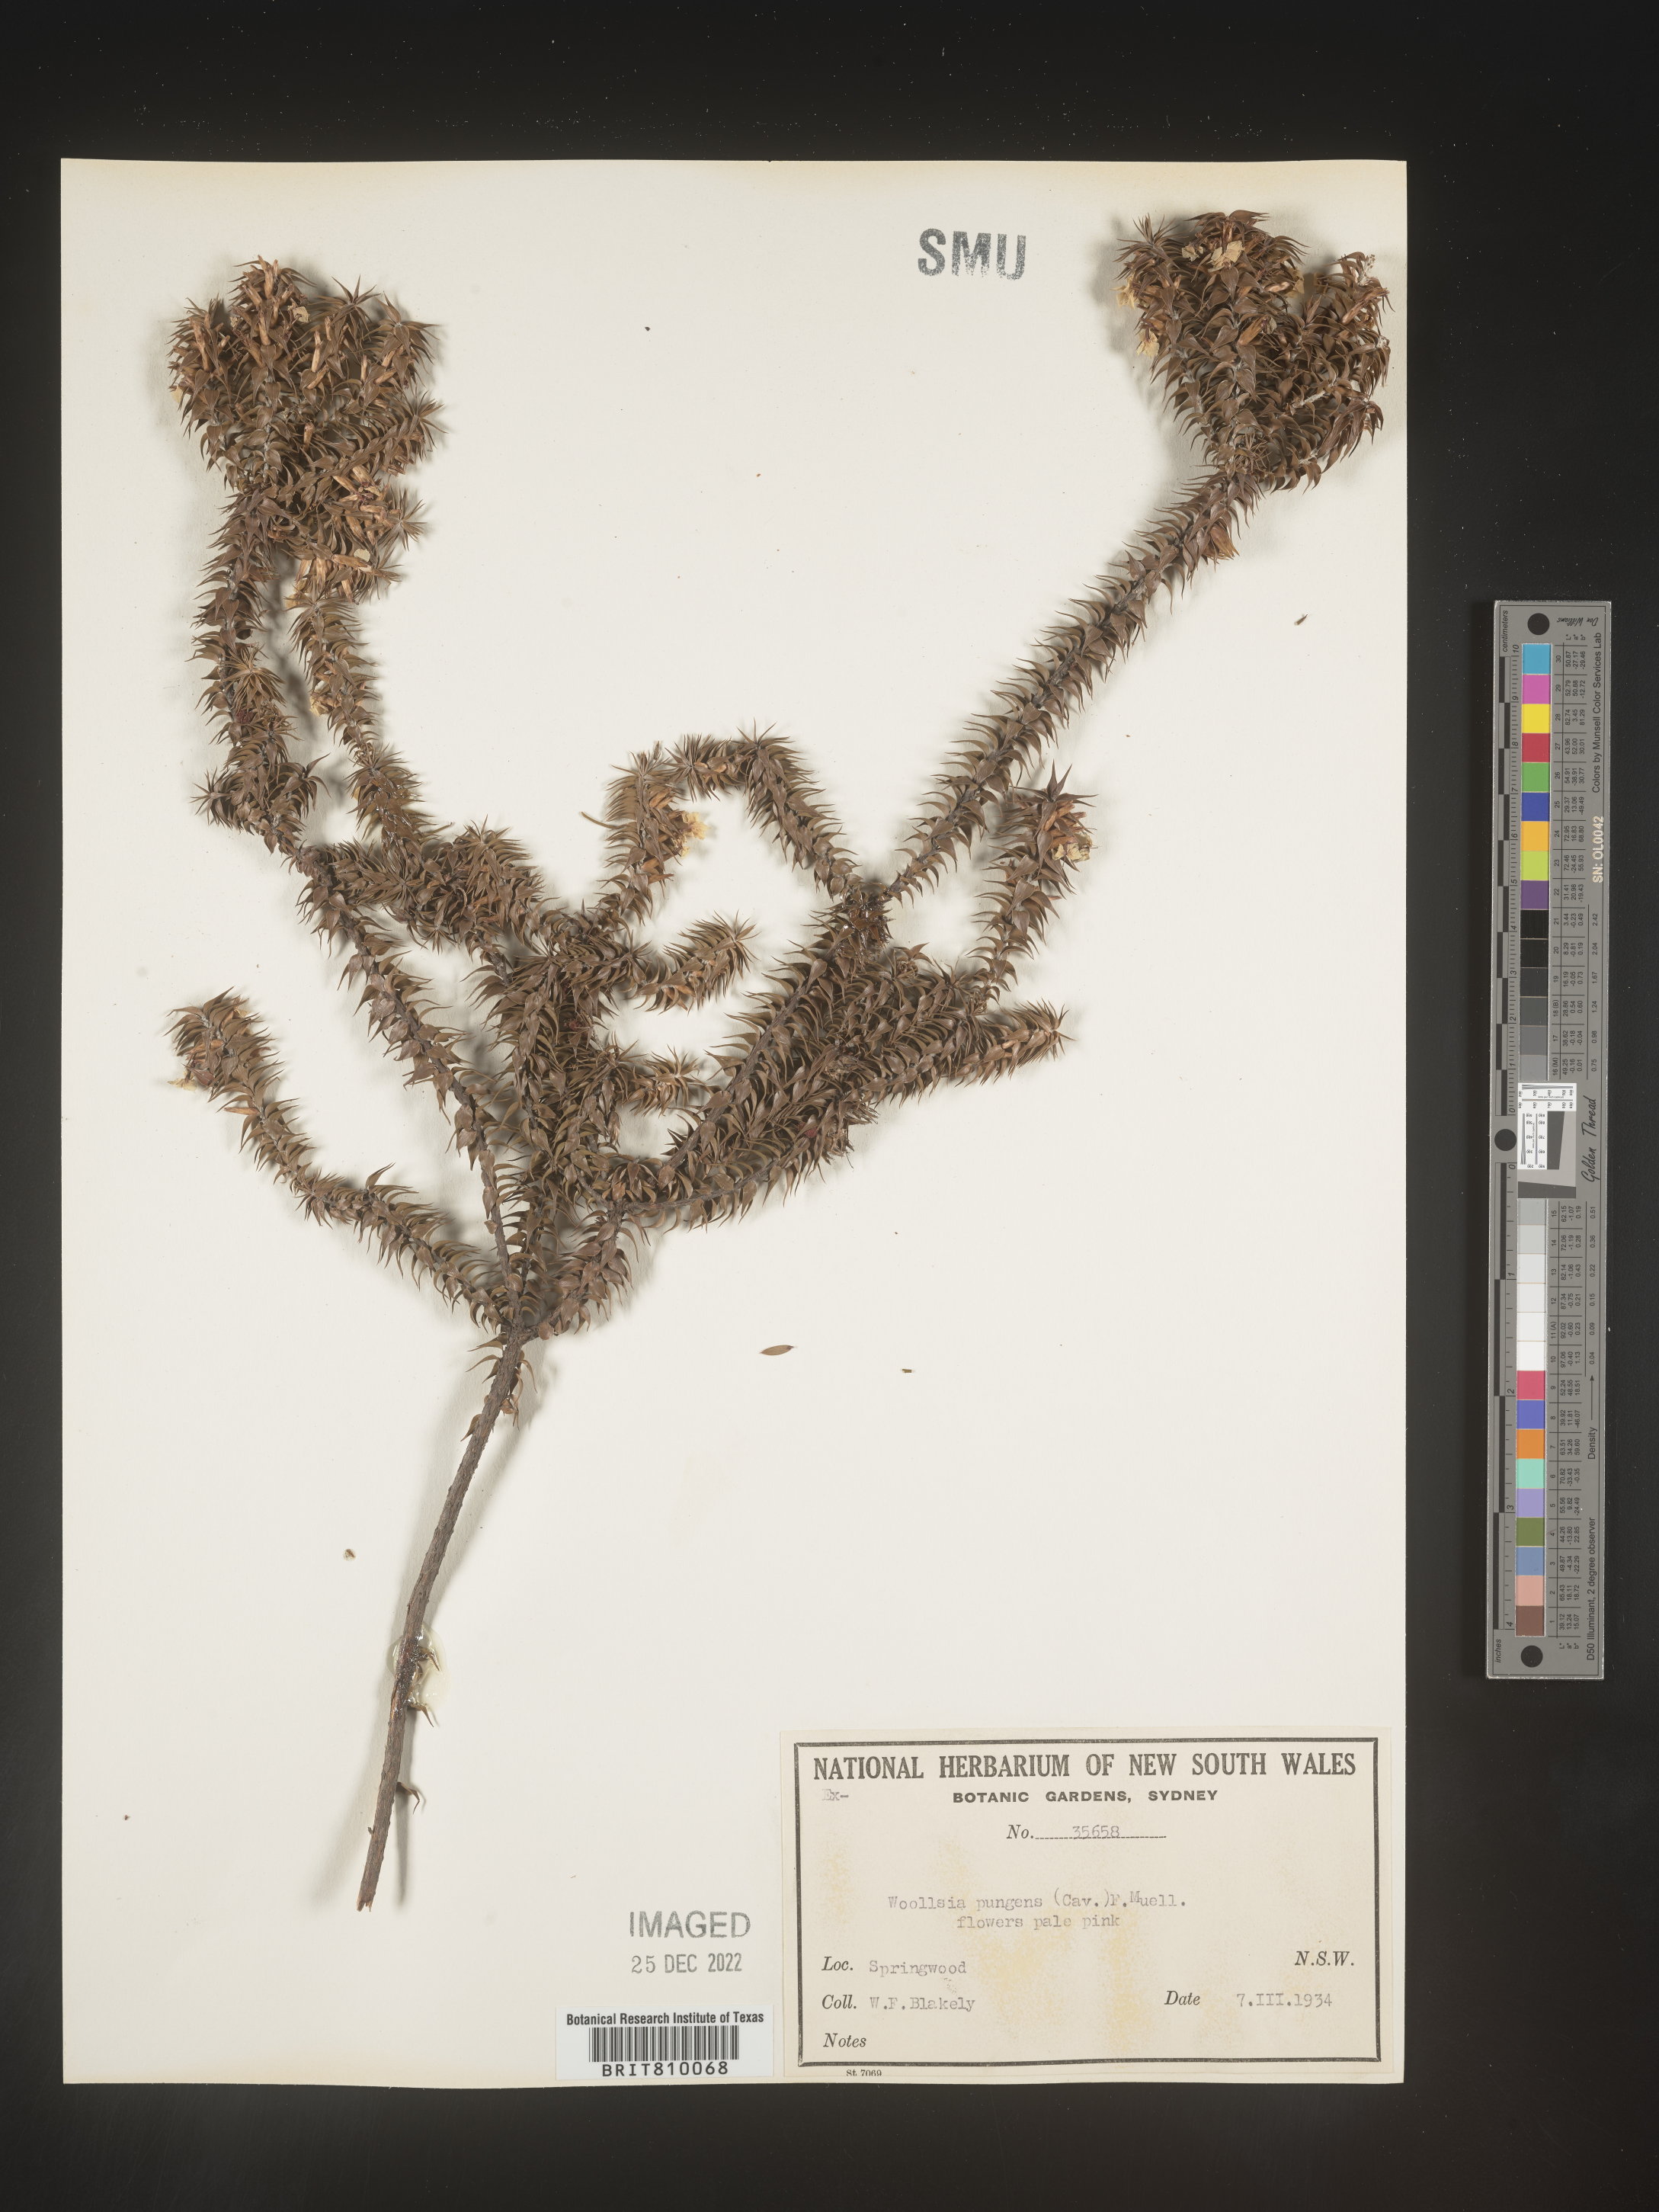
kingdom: Plantae
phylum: Tracheophyta
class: Magnoliopsida
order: Ericales
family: Ericaceae
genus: Woollsia
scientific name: Woollsia
